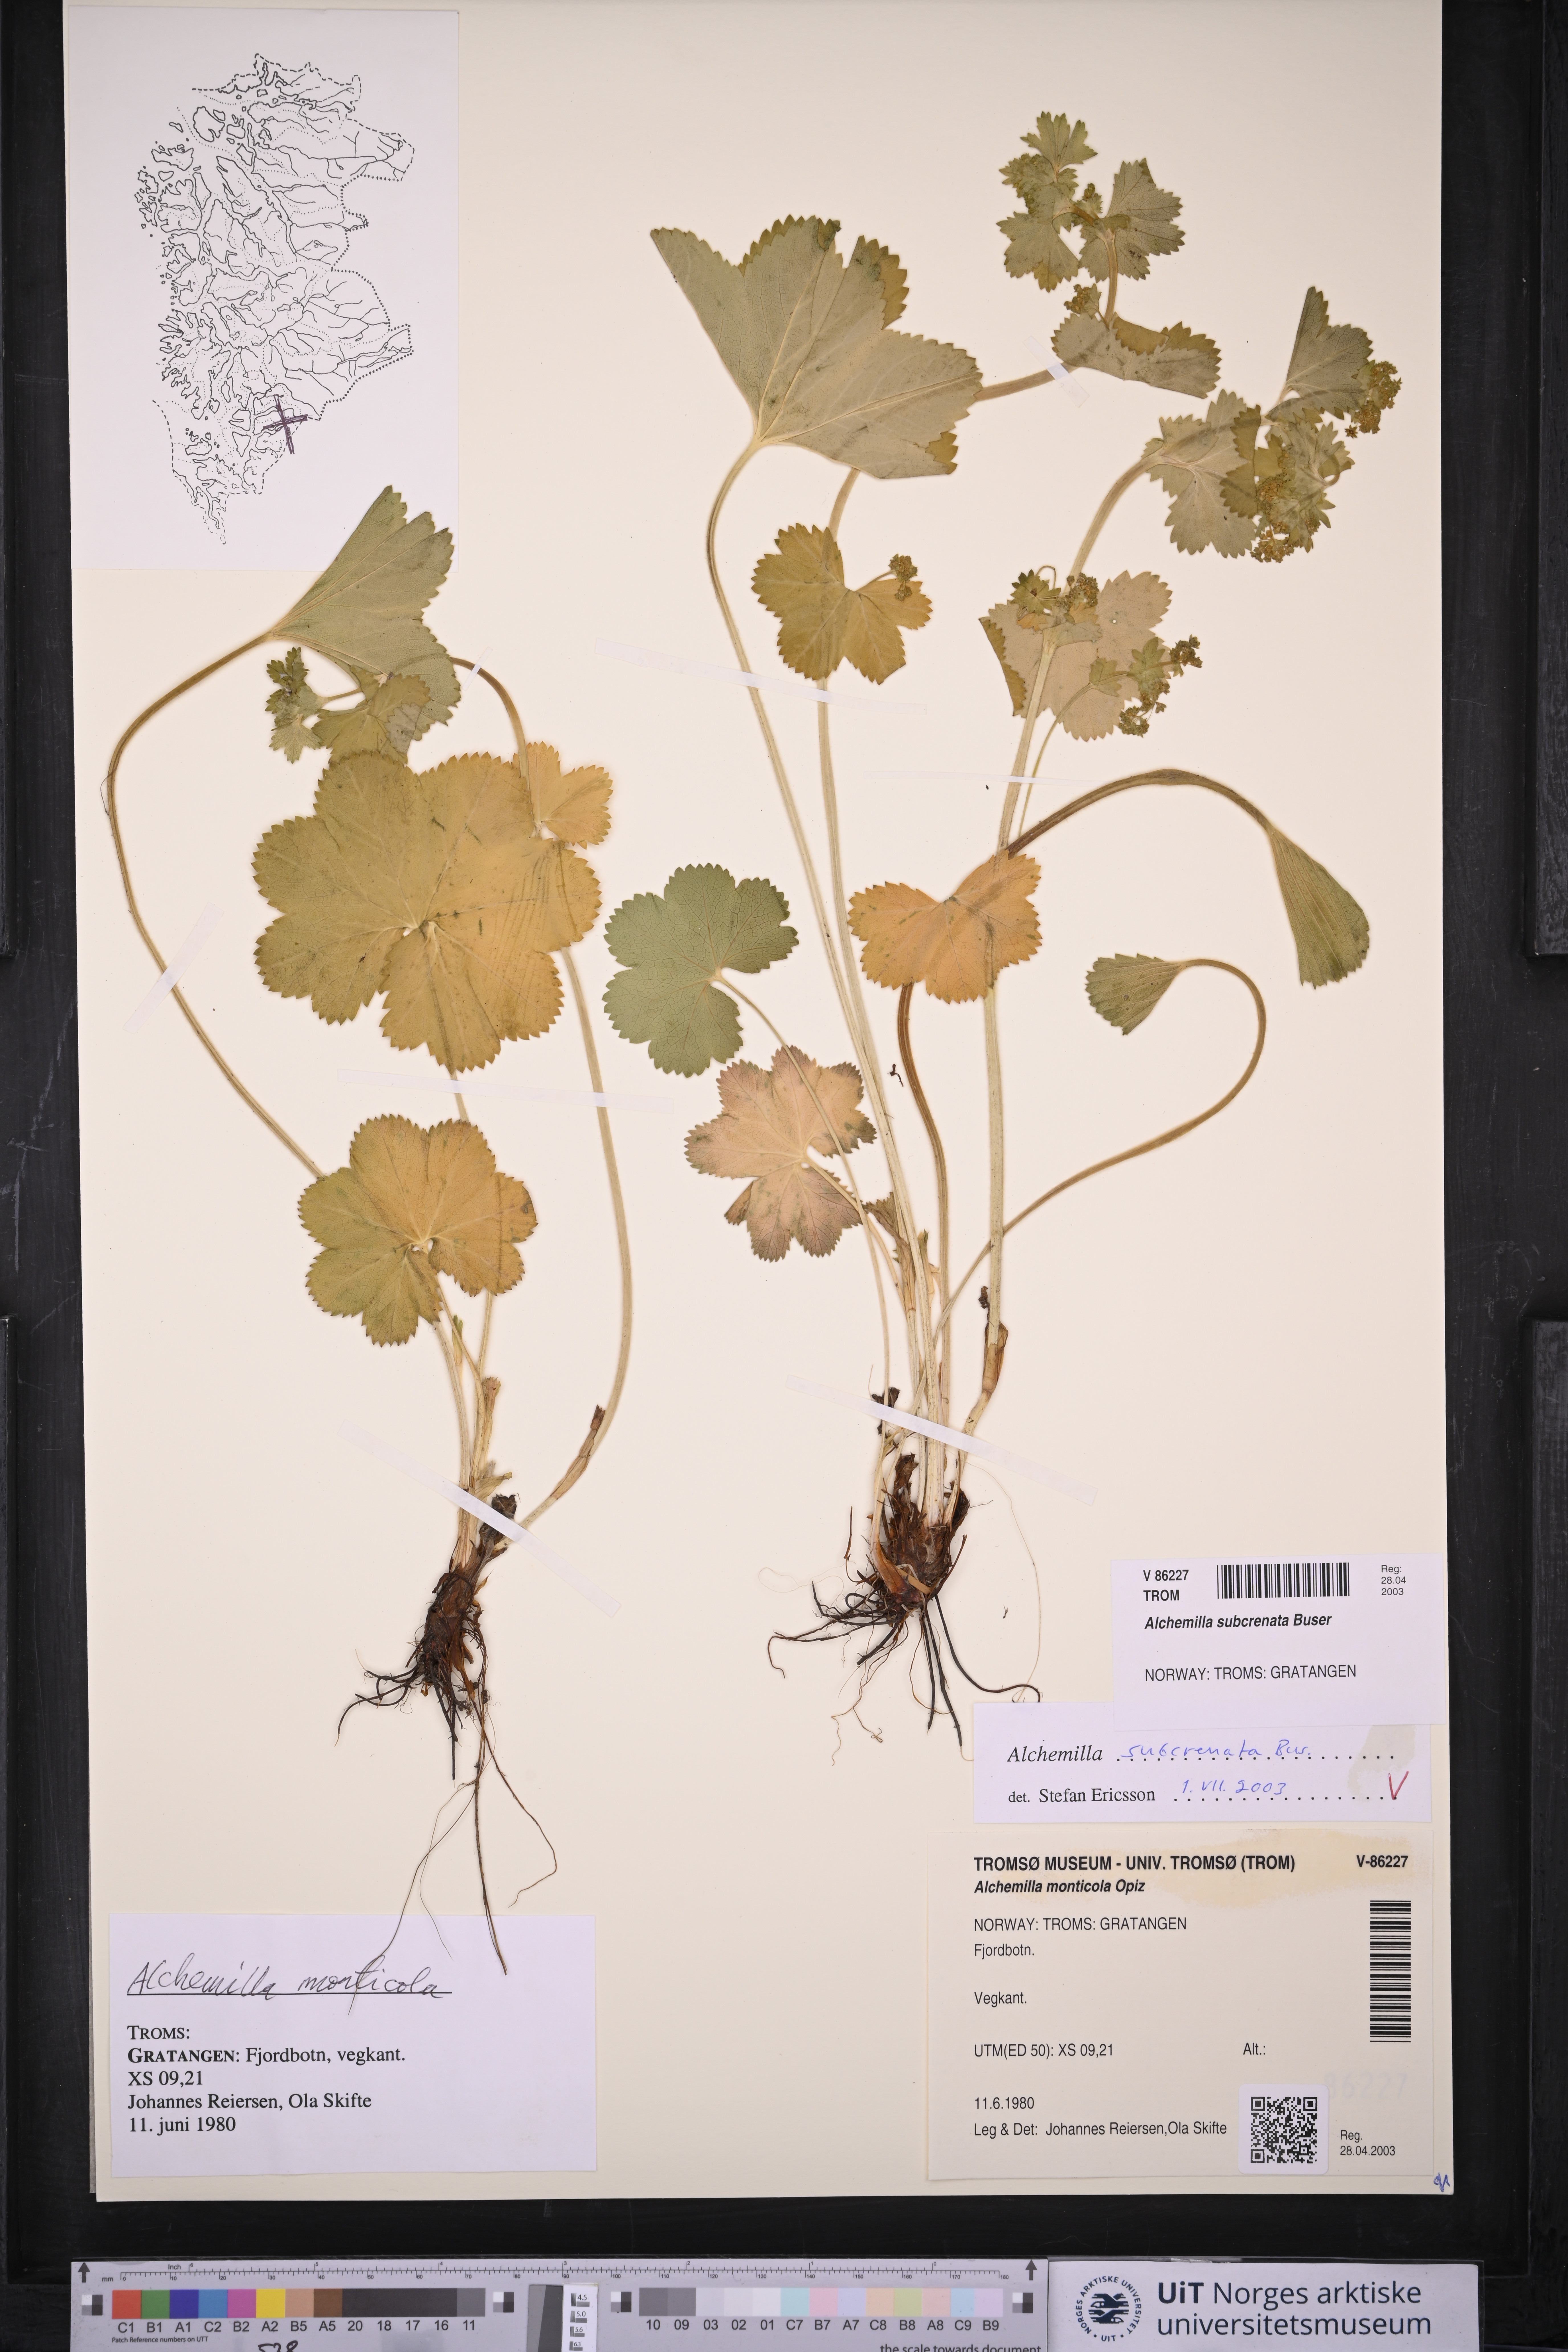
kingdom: Plantae
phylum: Tracheophyta
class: Magnoliopsida
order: Rosales
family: Rosaceae
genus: Alchemilla
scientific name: Alchemilla subcrenata
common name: Broadtooth lady's mantle
